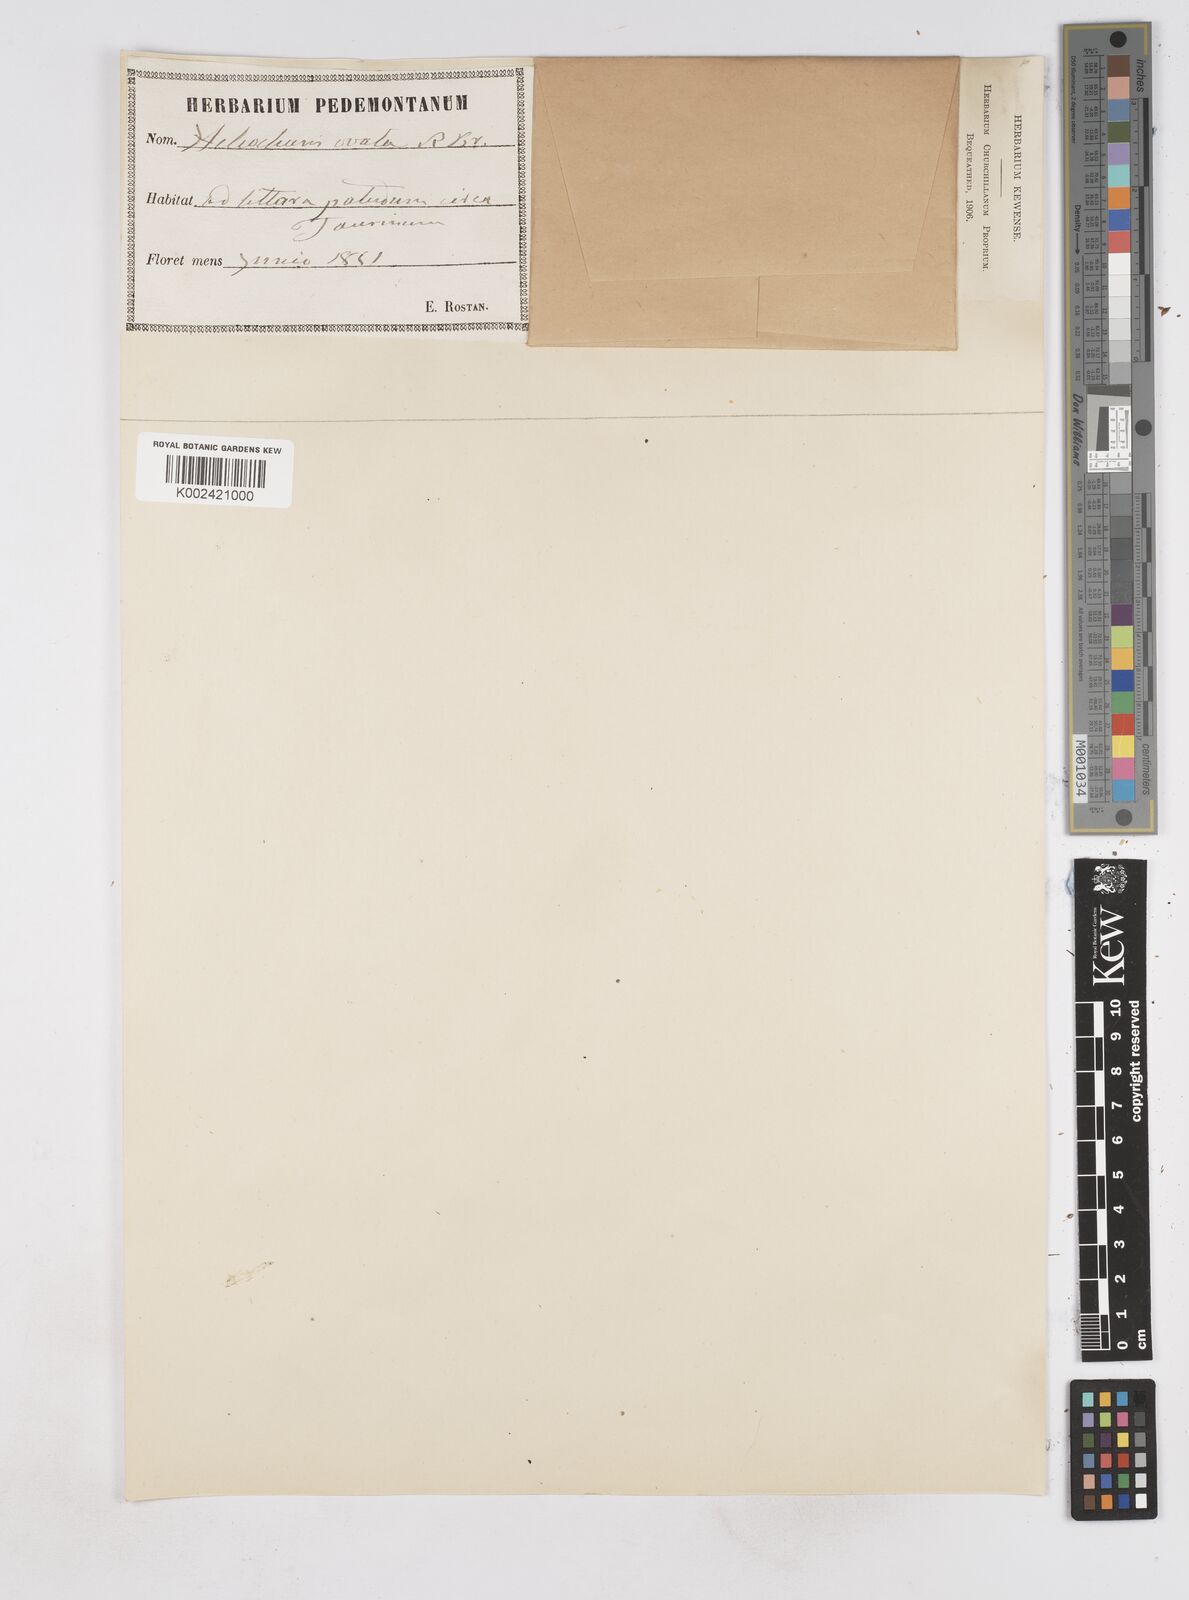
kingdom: Plantae
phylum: Tracheophyta
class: Liliopsida
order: Poales
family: Cyperaceae
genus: Eleocharis
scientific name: Eleocharis ovata
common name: Oval spike-rush
